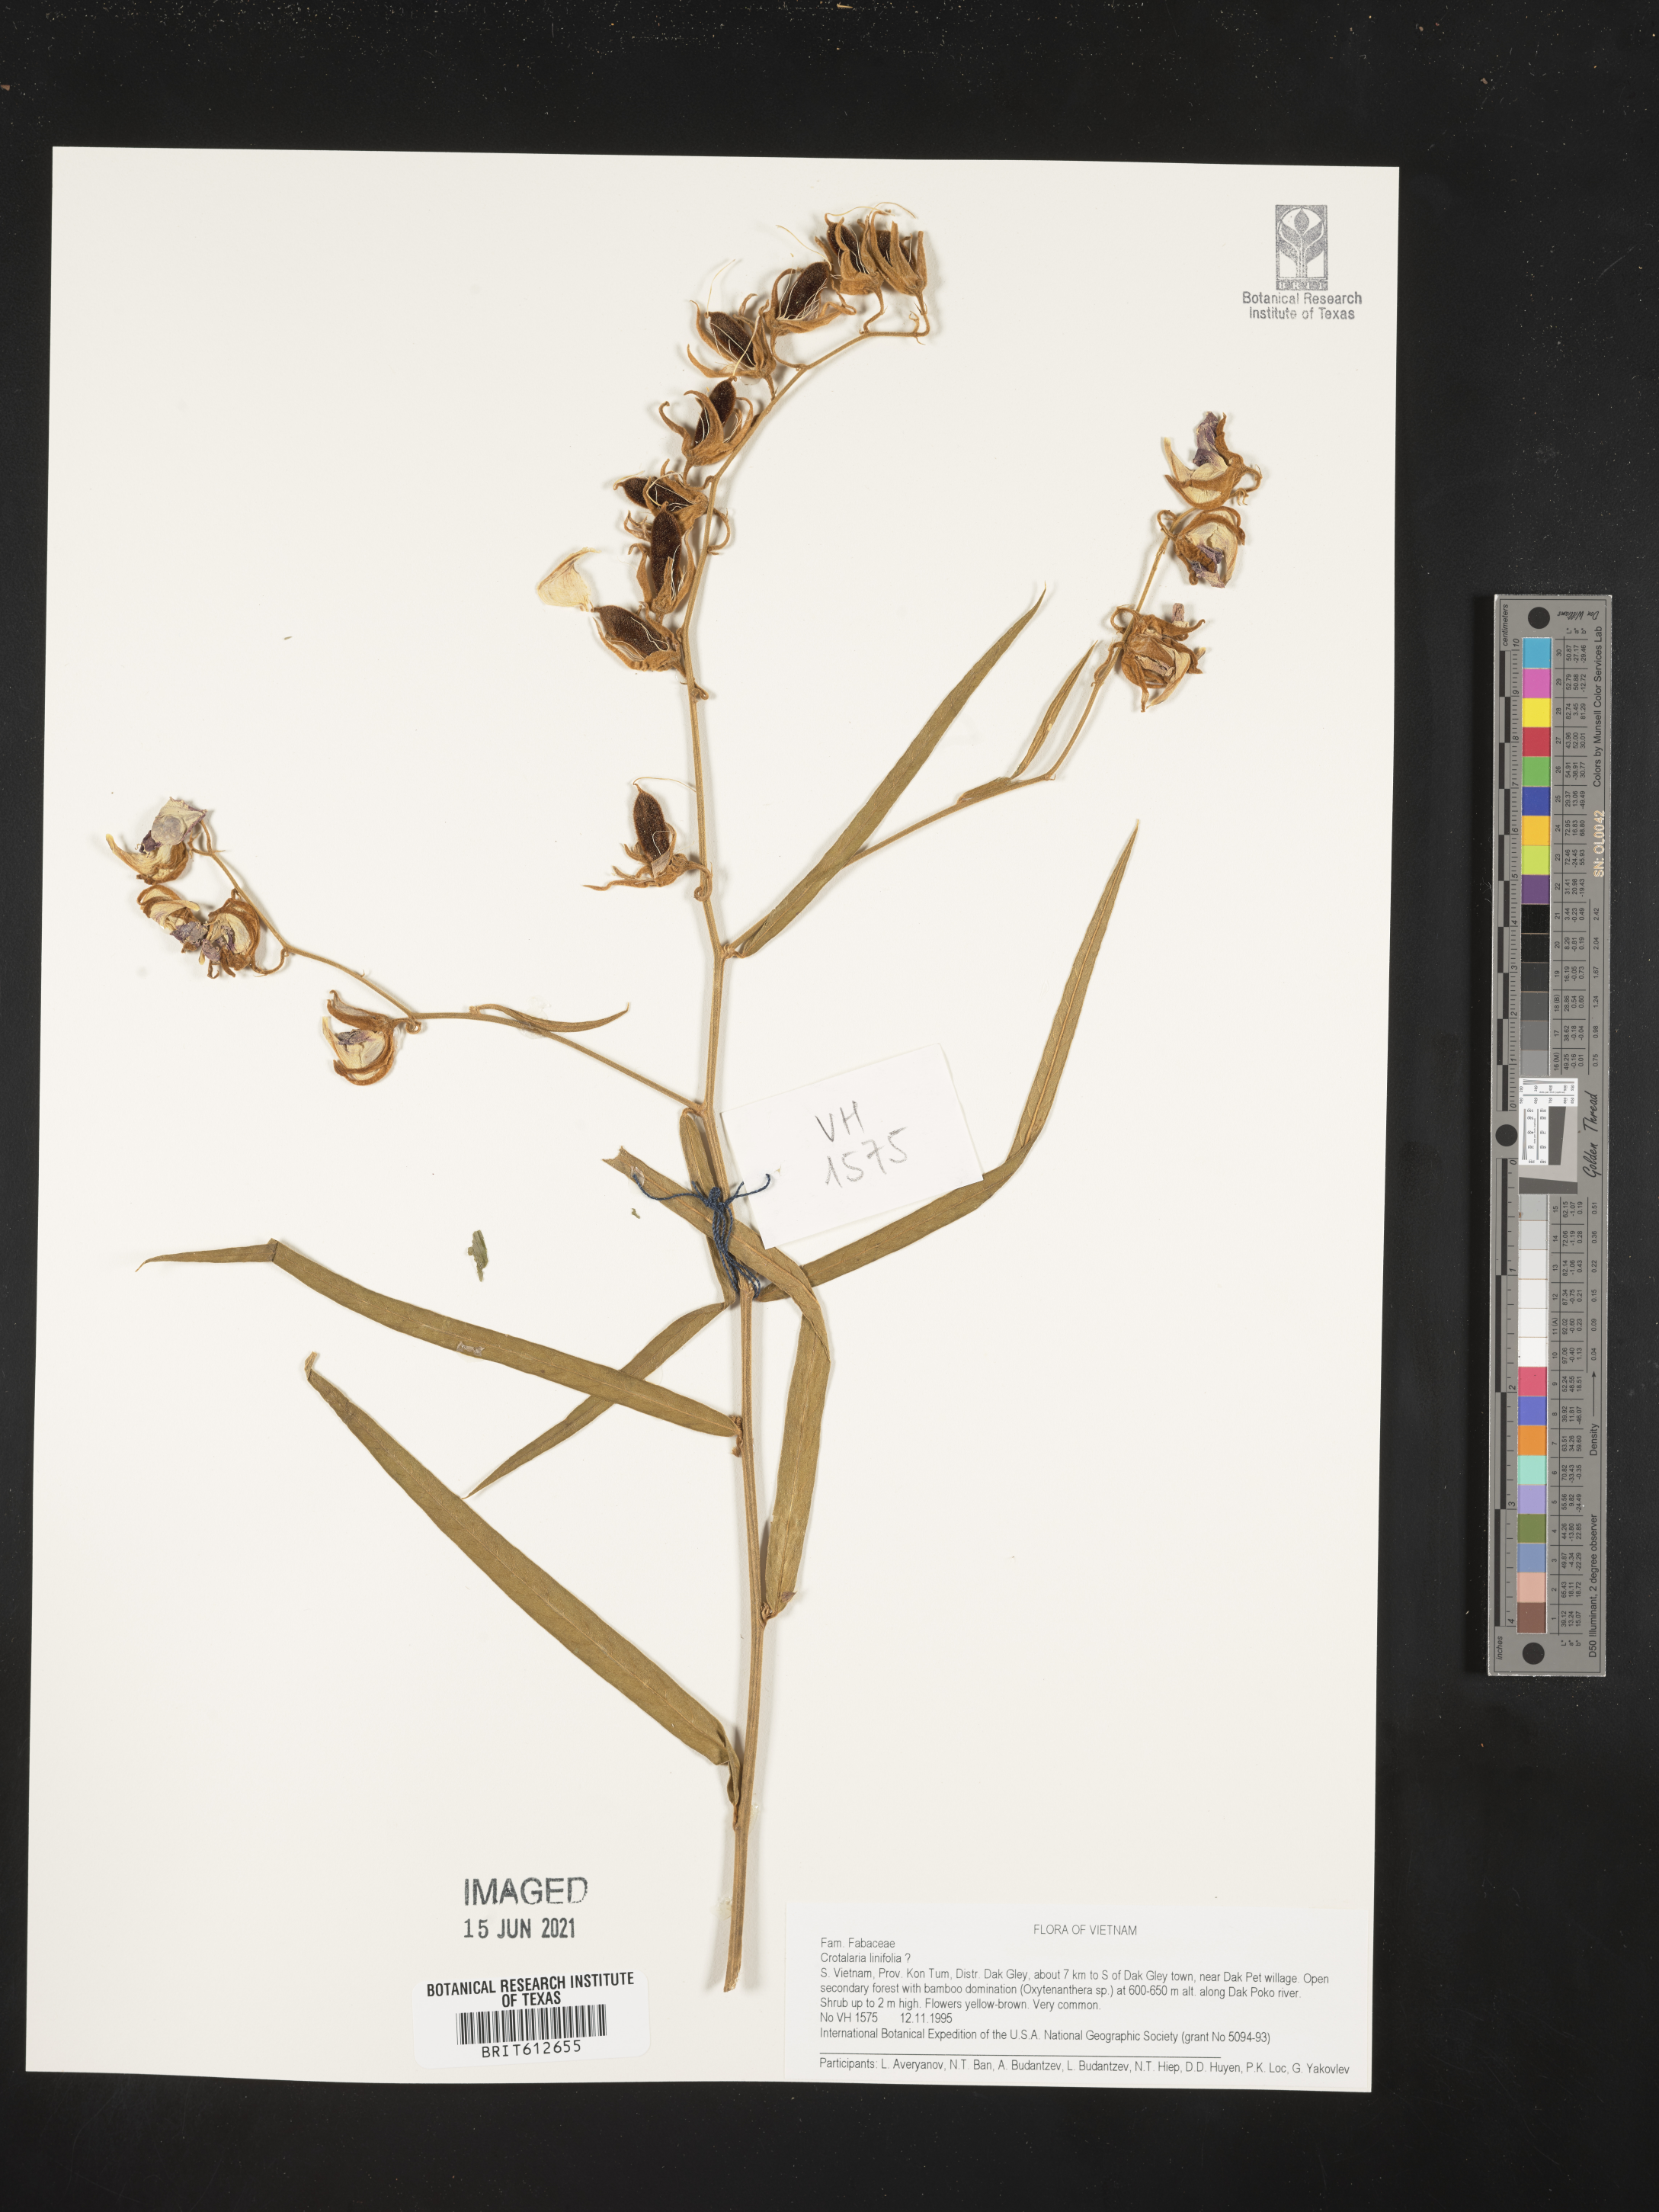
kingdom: Plantae
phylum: Tracheophyta
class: Magnoliopsida
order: Fabales
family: Fabaceae
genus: Crotalaria
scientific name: Crotalaria linifolia
